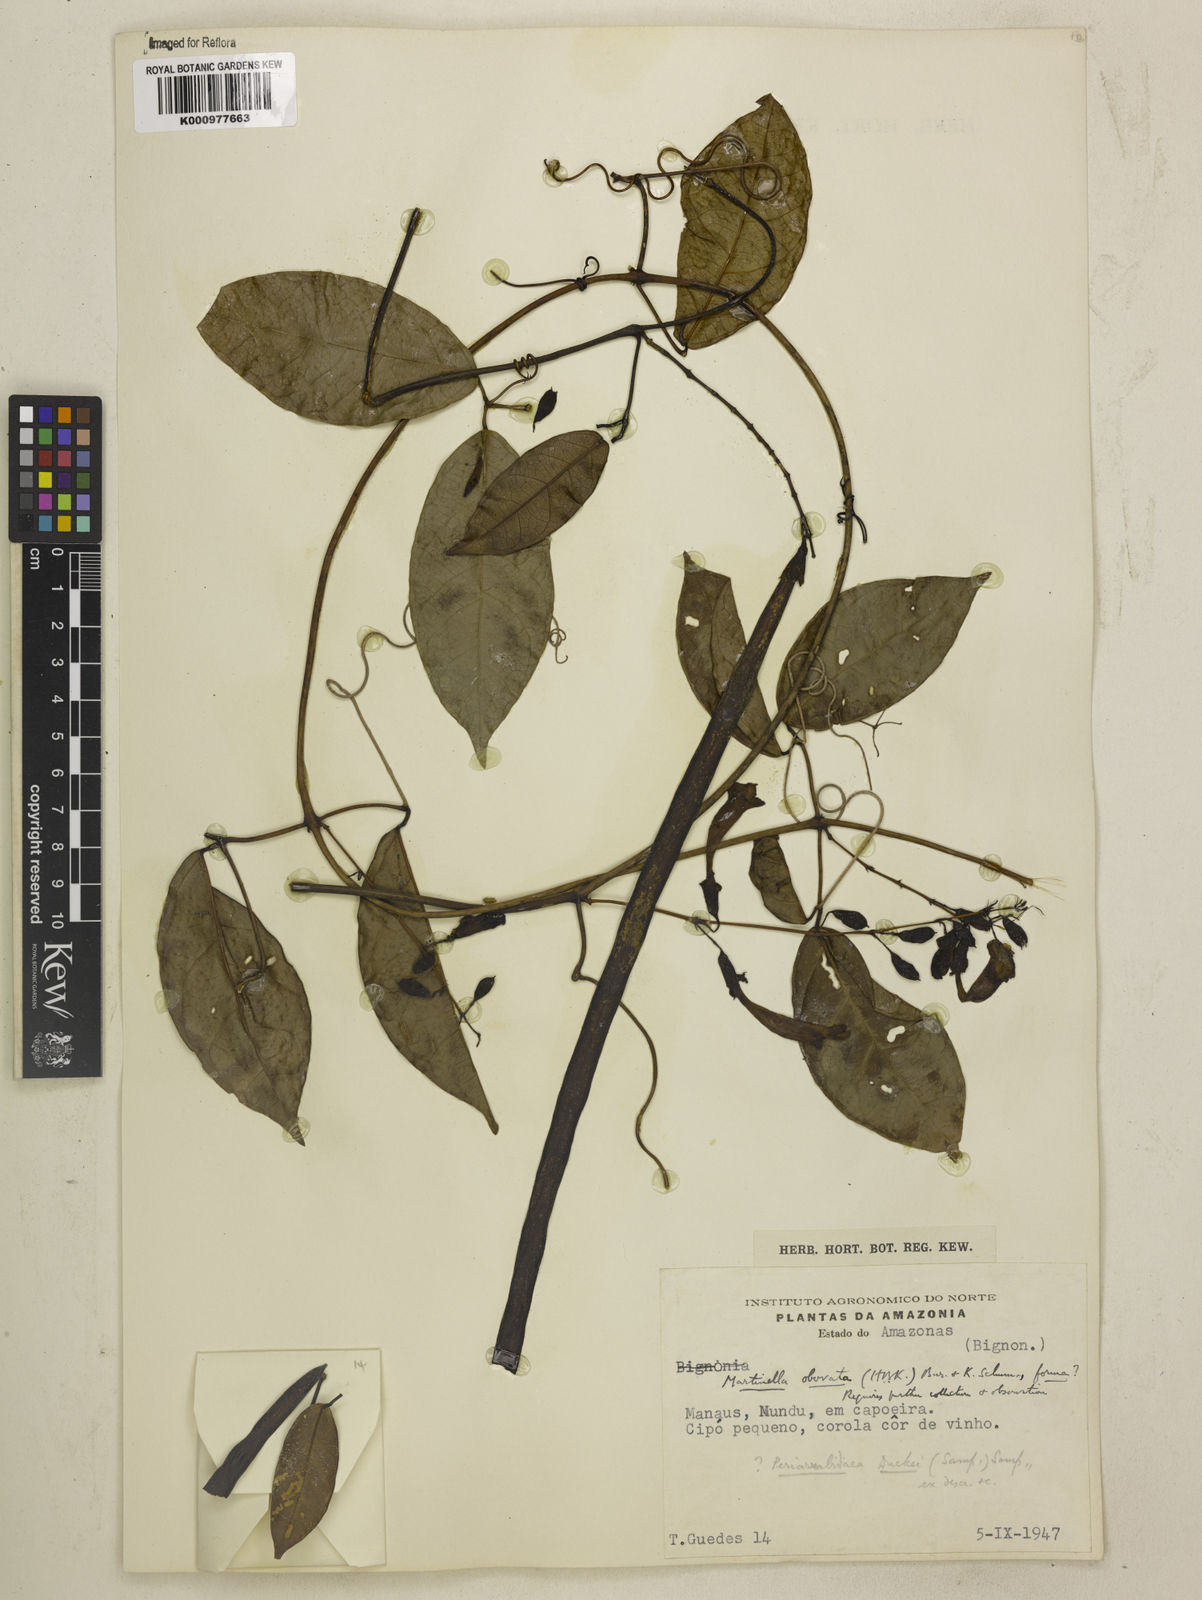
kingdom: Animalia
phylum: Arthropoda
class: Insecta
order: Coleoptera
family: Chrysomelidae
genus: Martinella
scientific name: Martinella obovata
